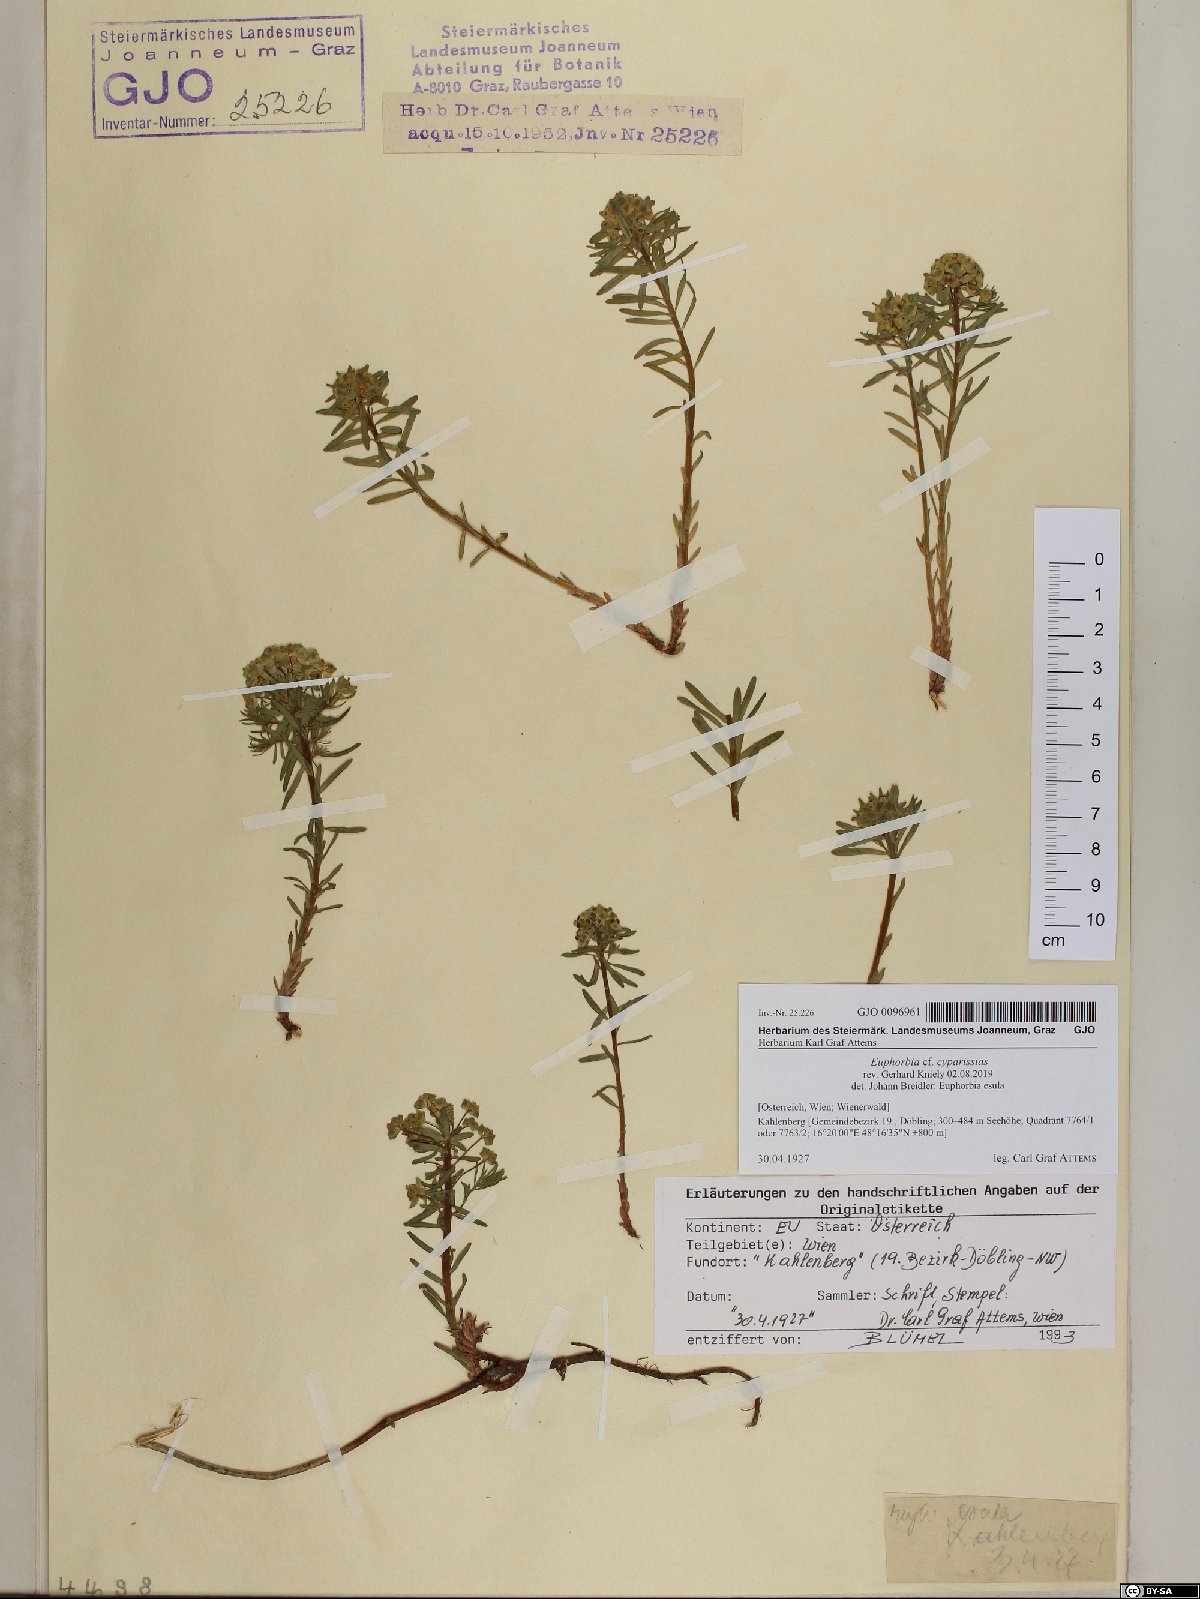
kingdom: Plantae
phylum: Tracheophyta
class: Magnoliopsida
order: Malpighiales
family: Euphorbiaceae
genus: Euphorbia
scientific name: Euphorbia cyparissias
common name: Cypress spurge
